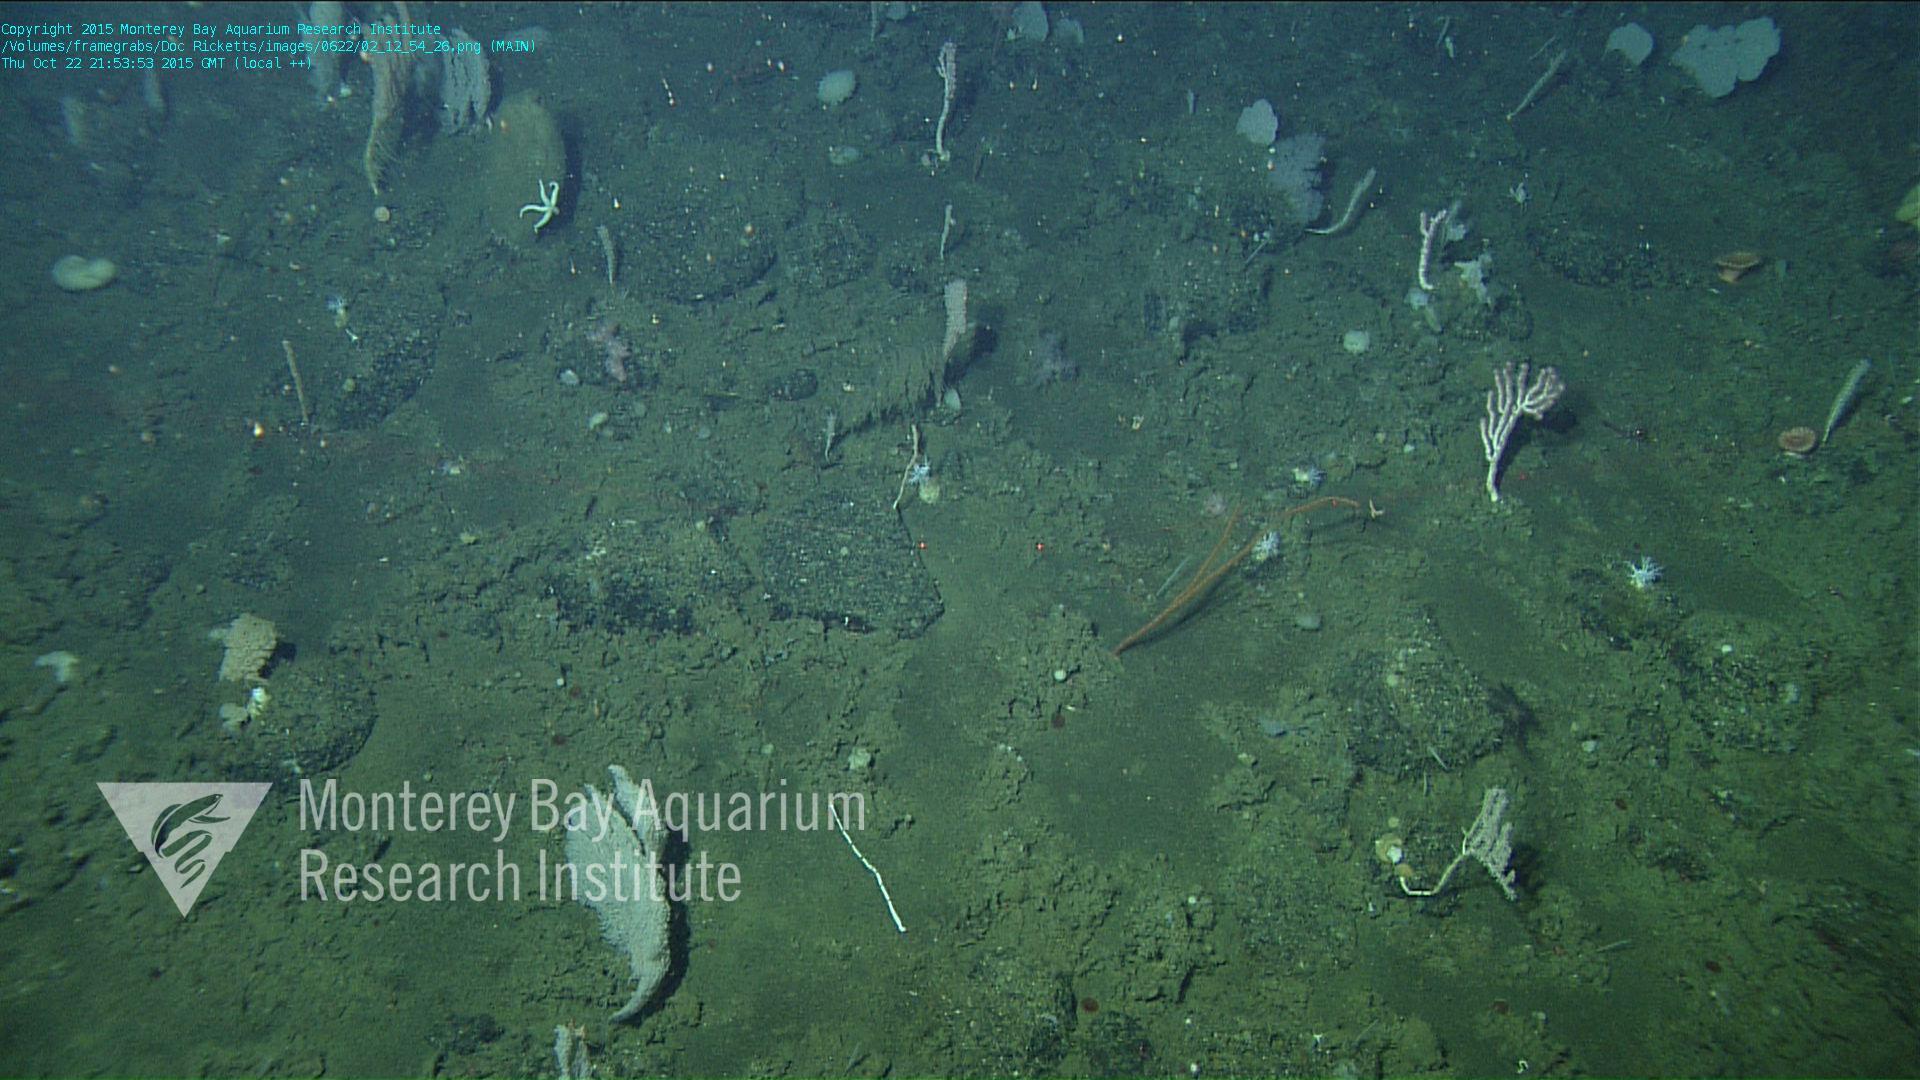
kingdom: Animalia
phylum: Cnidaria
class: Anthozoa
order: Malacalcyonacea
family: Gorgoniidae
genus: Callistephanus
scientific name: Callistephanus simplex
